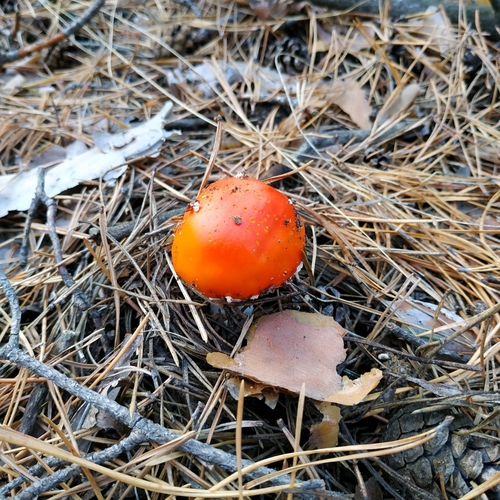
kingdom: Fungi
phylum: Basidiomycota
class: Agaricomycetes
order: Agaricales
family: Amanitaceae
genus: Amanita
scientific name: Amanita muscaria
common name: Fly agaric
